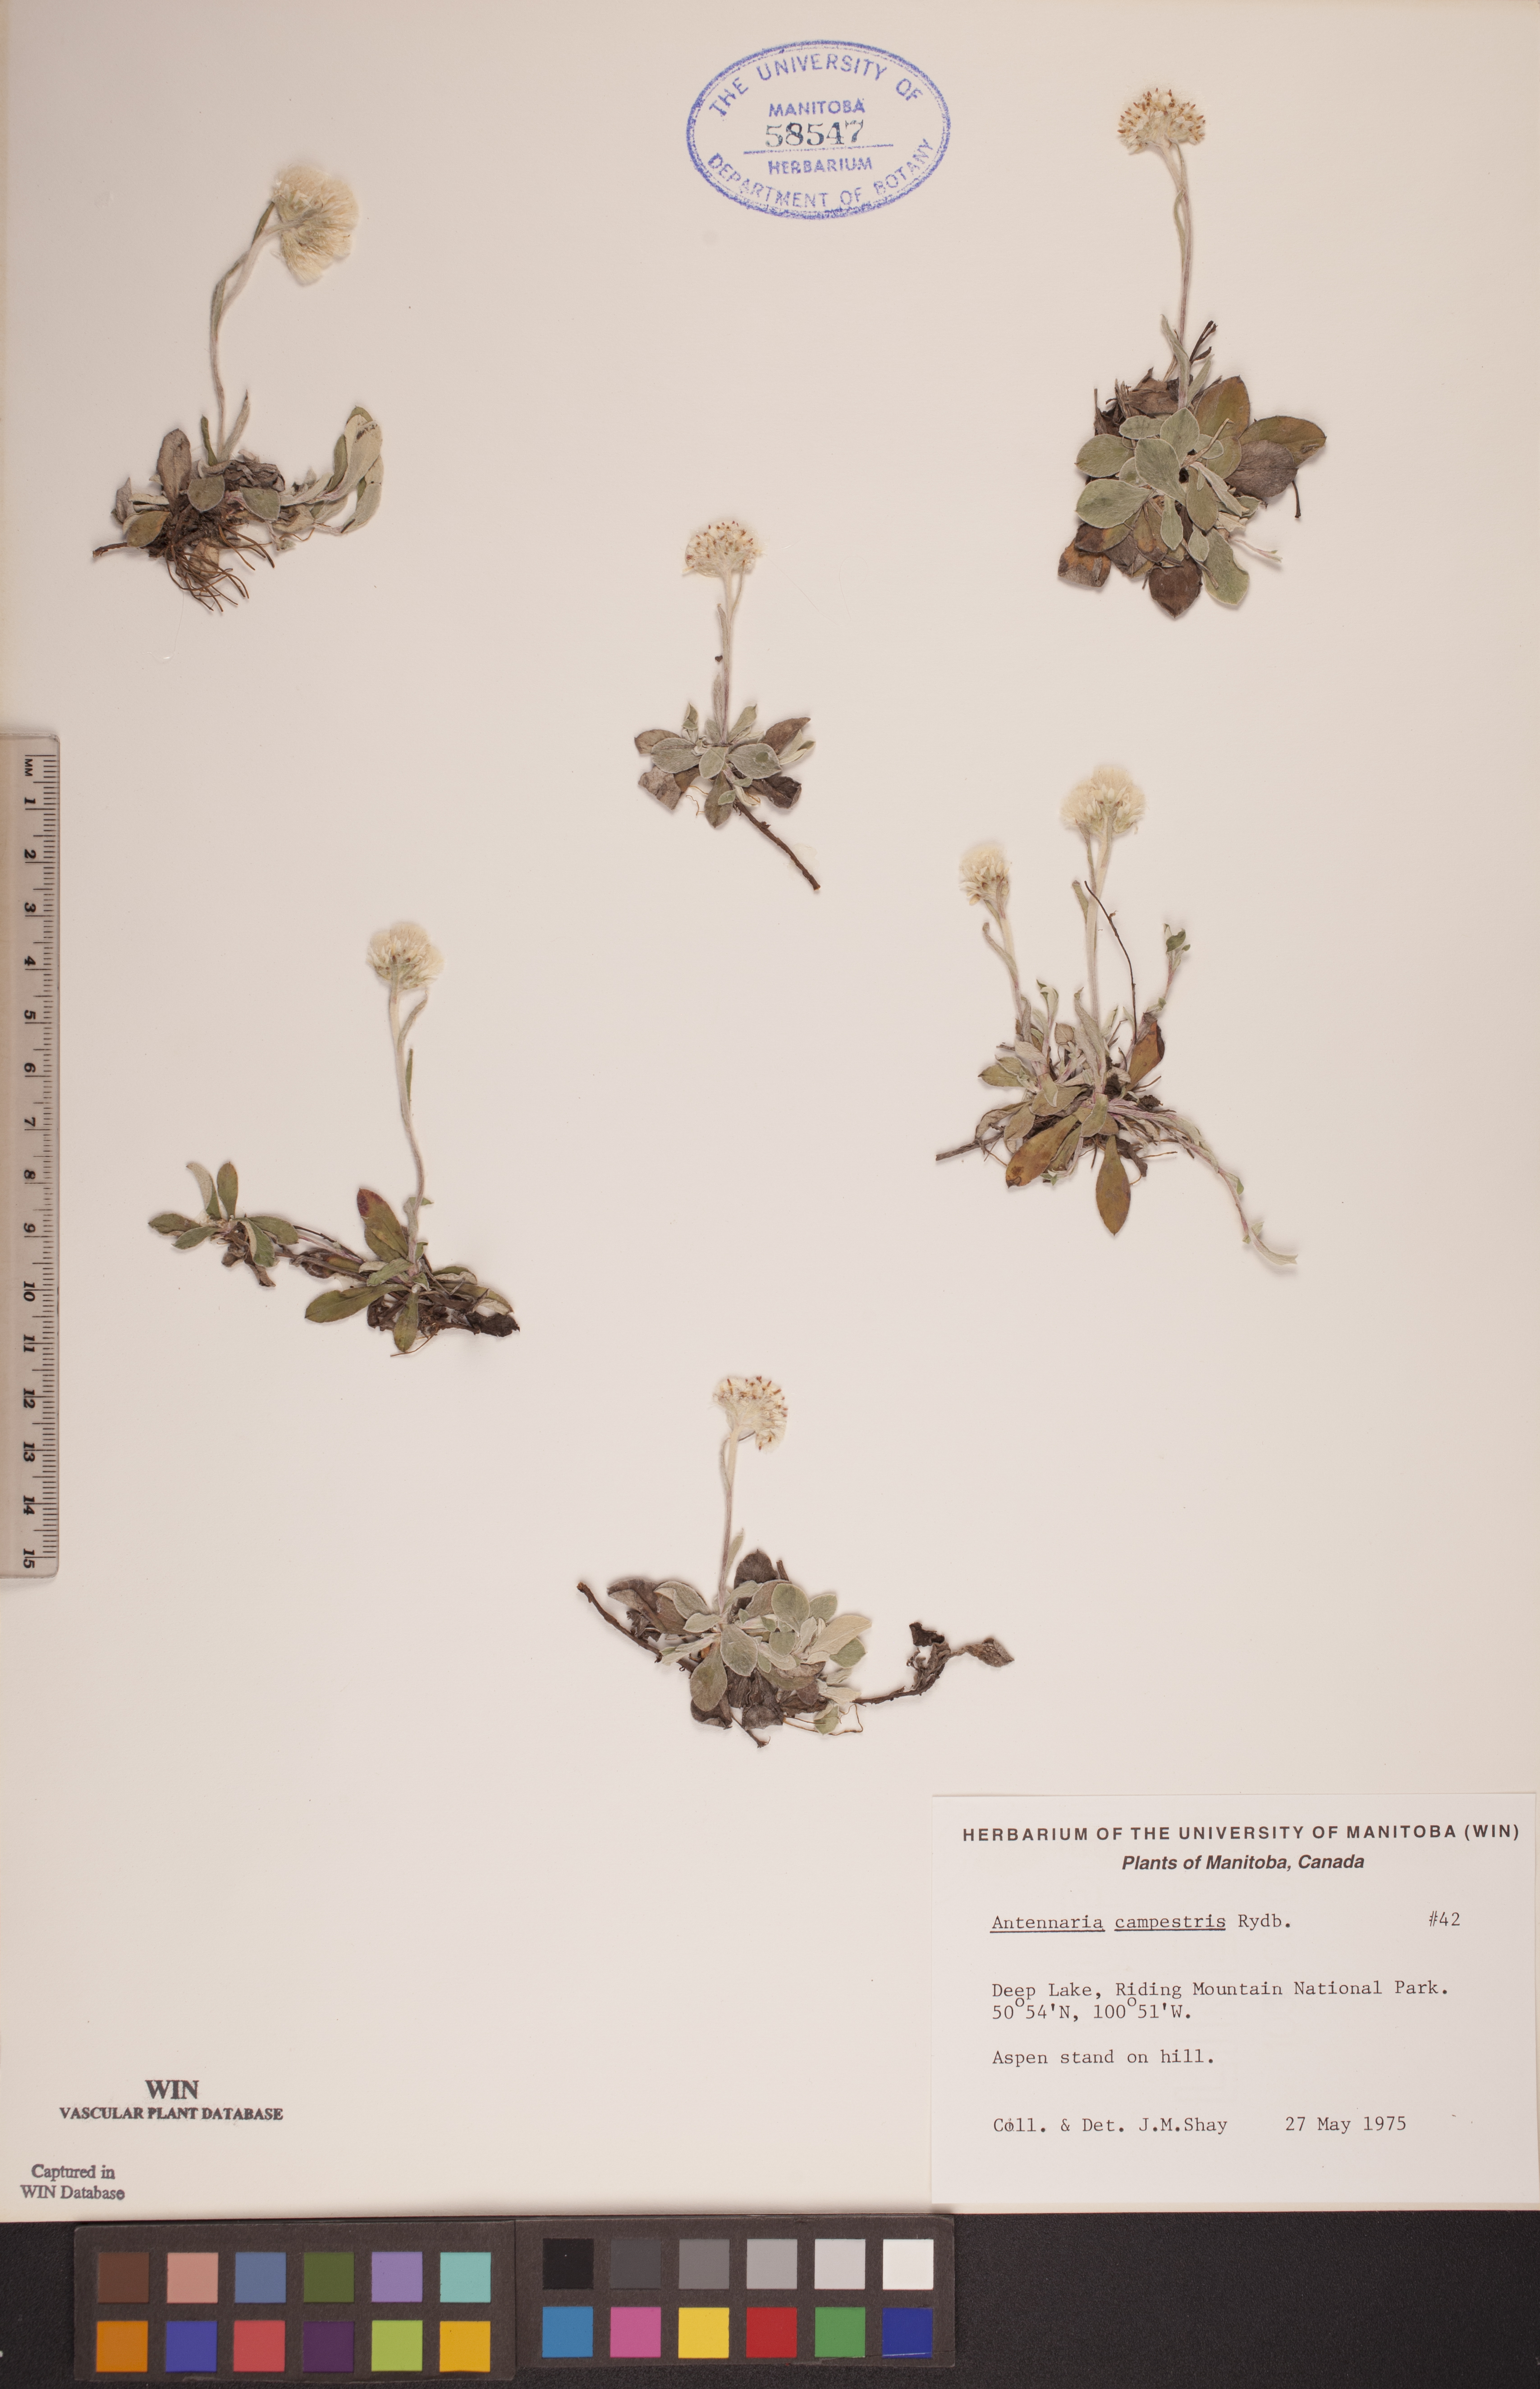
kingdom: Plantae
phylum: Tracheophyta
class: Magnoliopsida
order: Asterales
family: Asteraceae
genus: Antennaria
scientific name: Antennaria neglecta
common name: Field pussytoes
